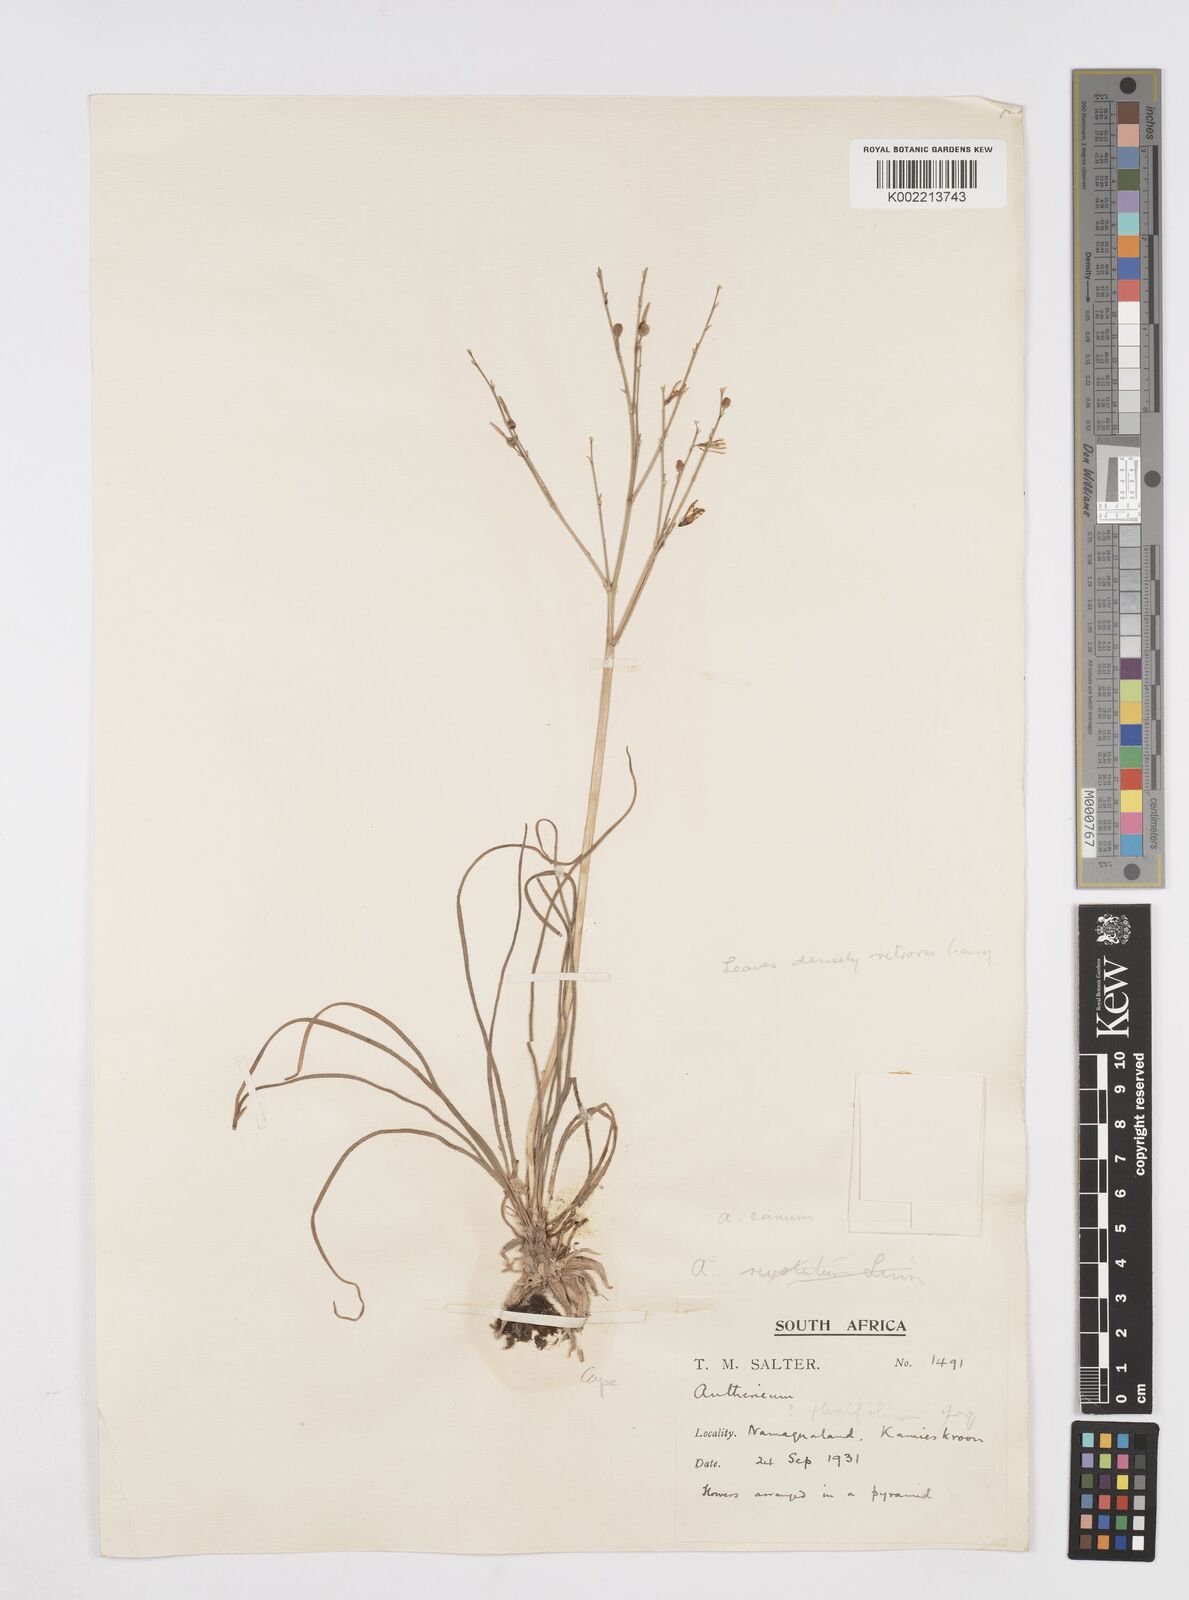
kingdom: Plantae
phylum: Tracheophyta
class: Liliopsida
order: Asparagales
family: Asphodelaceae
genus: Trachyandra
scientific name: Trachyandra divaricata
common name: Dune onionweed
